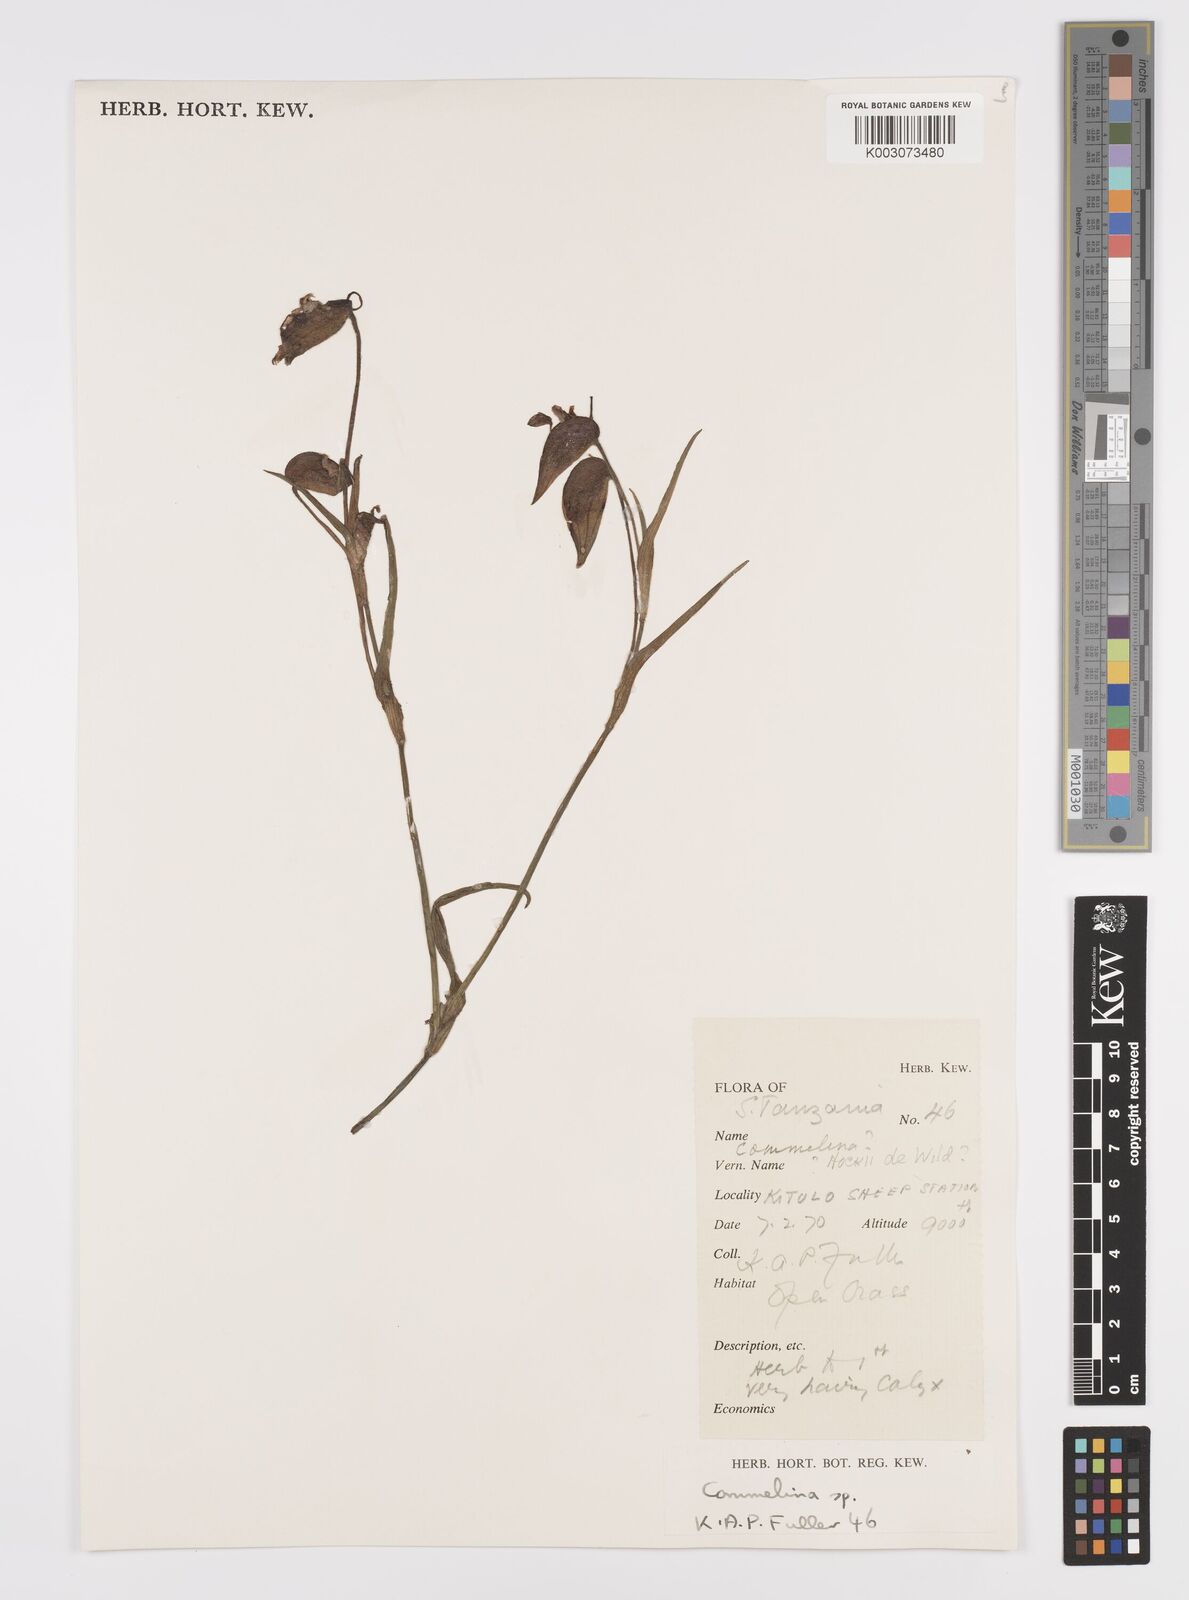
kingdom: Plantae
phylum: Tracheophyta
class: Liliopsida
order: Commelinales
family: Commelinaceae
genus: Commelina
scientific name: Commelina kituloensis
